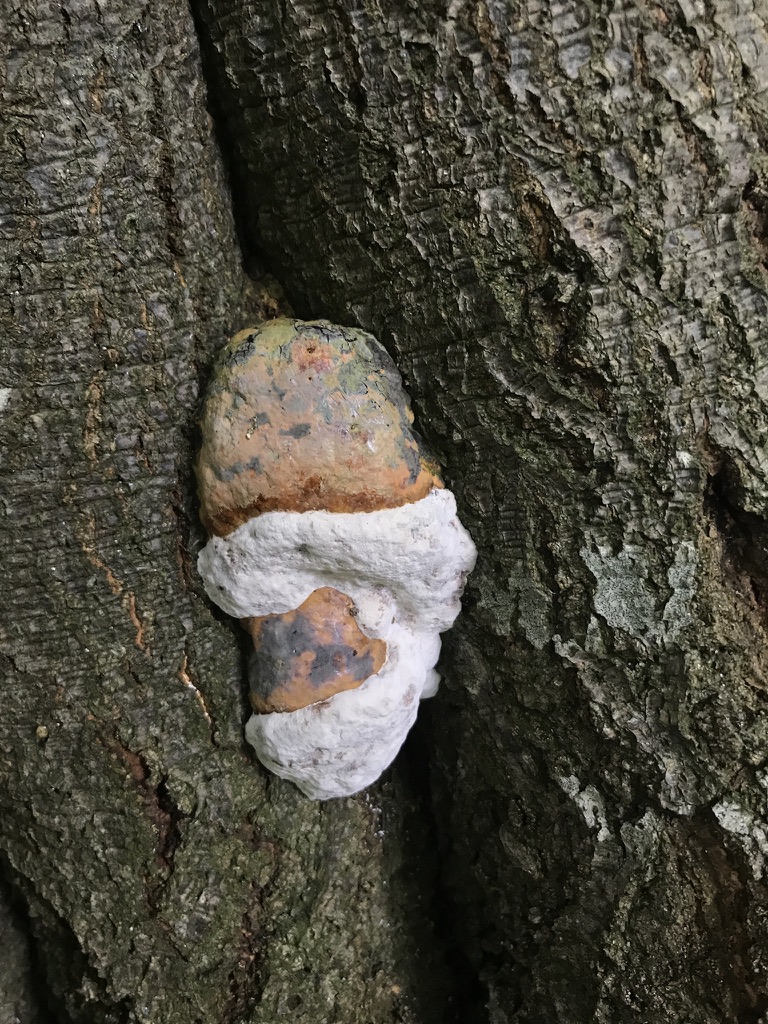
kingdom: Fungi
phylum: Basidiomycota
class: Agaricomycetes
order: Polyporales
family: Fomitopsidaceae
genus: Fomitopsis
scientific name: Fomitopsis pinicola
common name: randbæltet hovporesvamp
